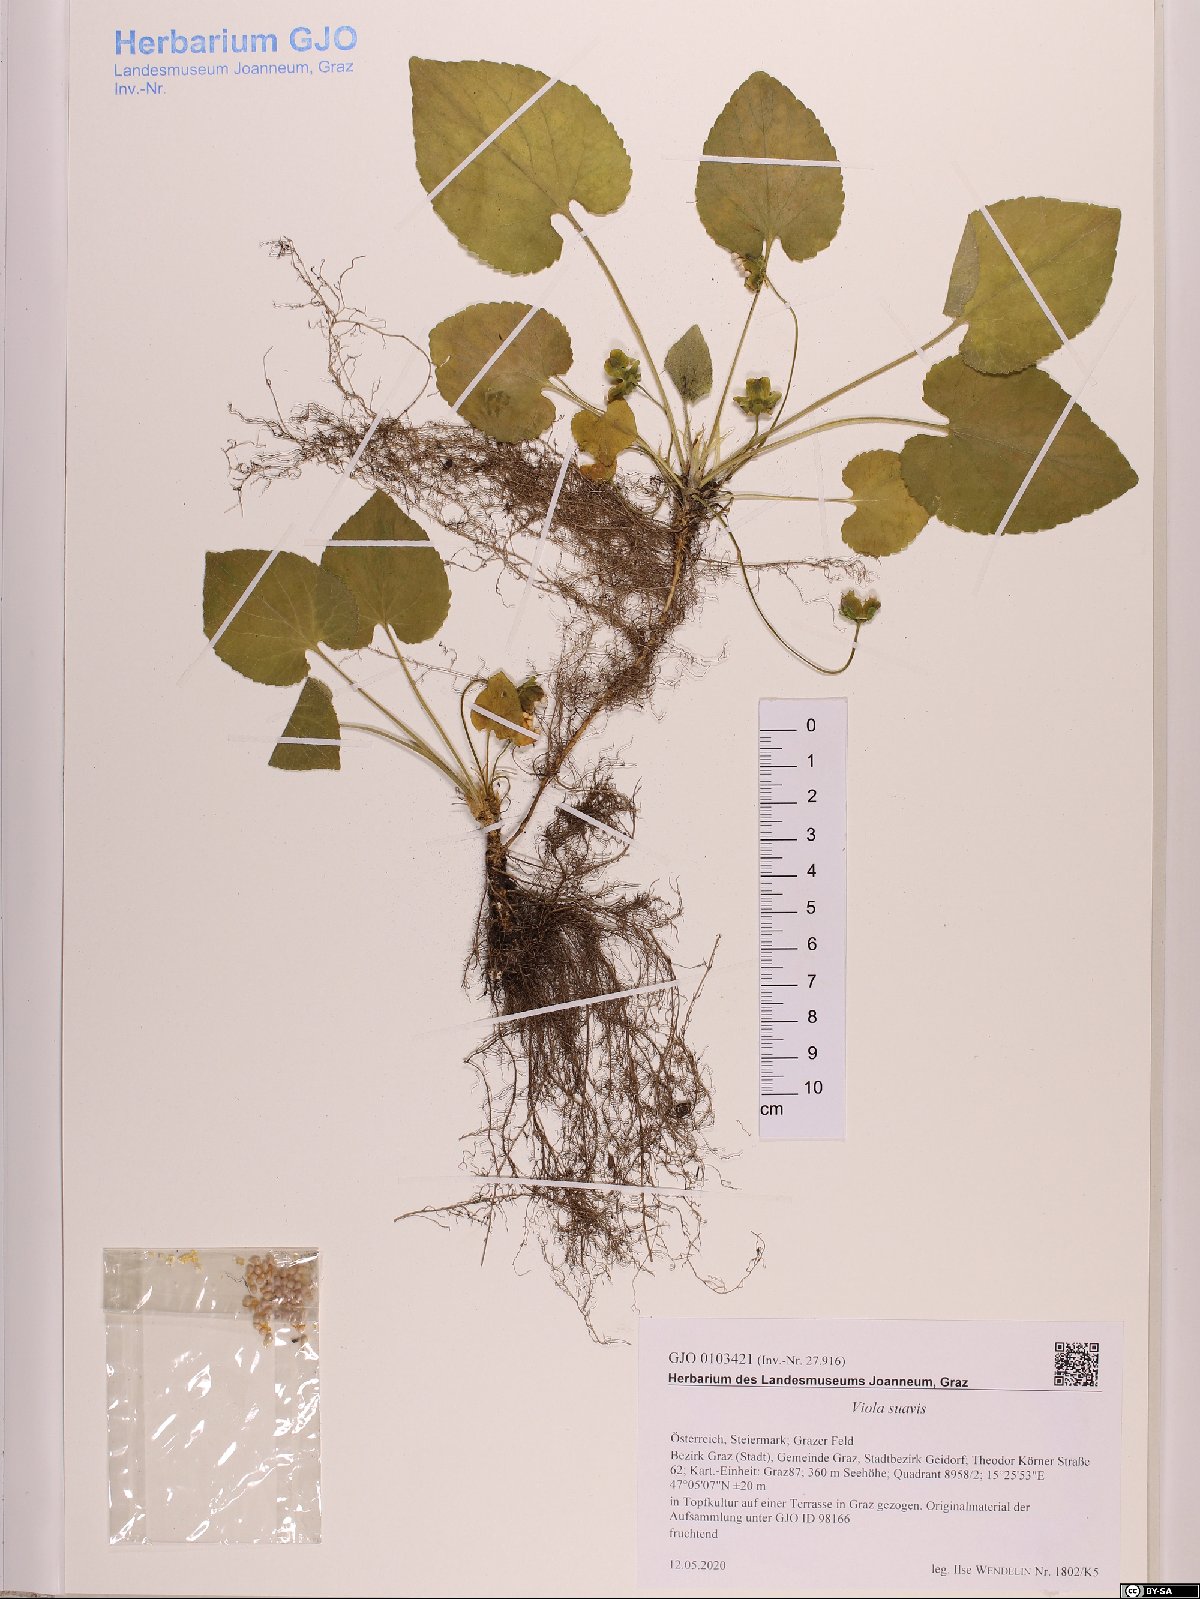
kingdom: Plantae
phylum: Tracheophyta
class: Magnoliopsida
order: Malpighiales
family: Violaceae
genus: Viola
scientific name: Viola suavis
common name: Russian violet
